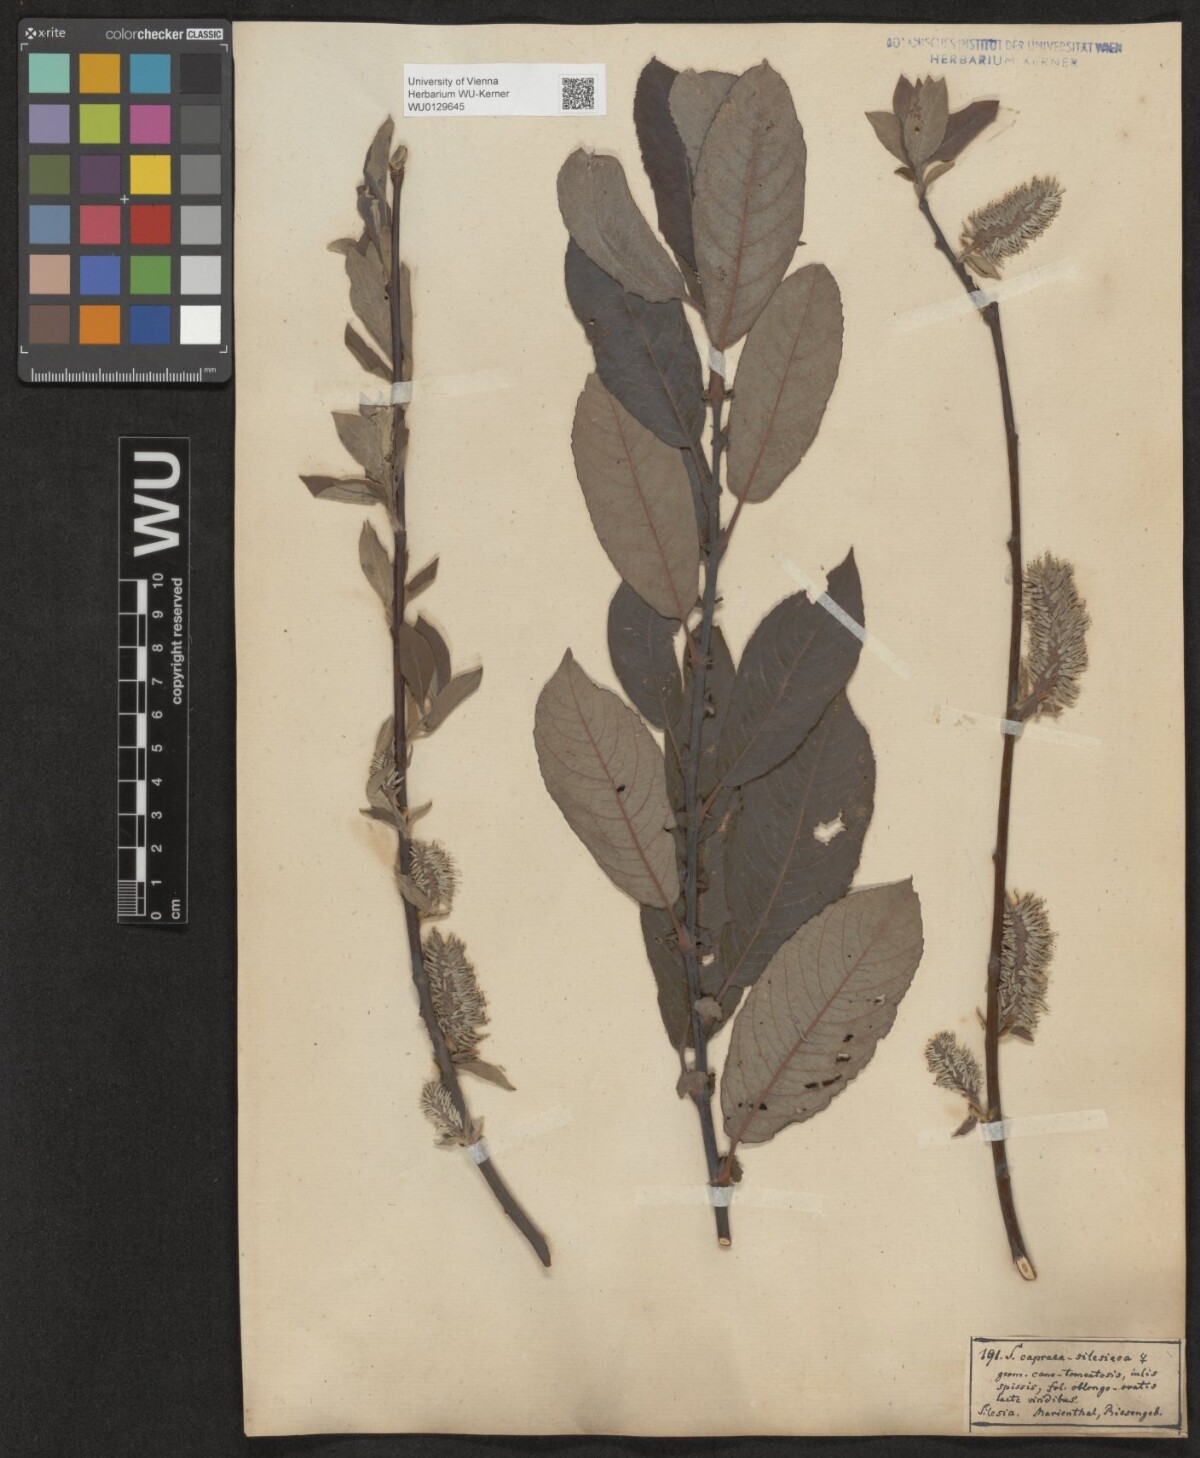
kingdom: Plantae
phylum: Tracheophyta
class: Magnoliopsida
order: Malpighiales
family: Salicaceae
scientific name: Salicaceae
